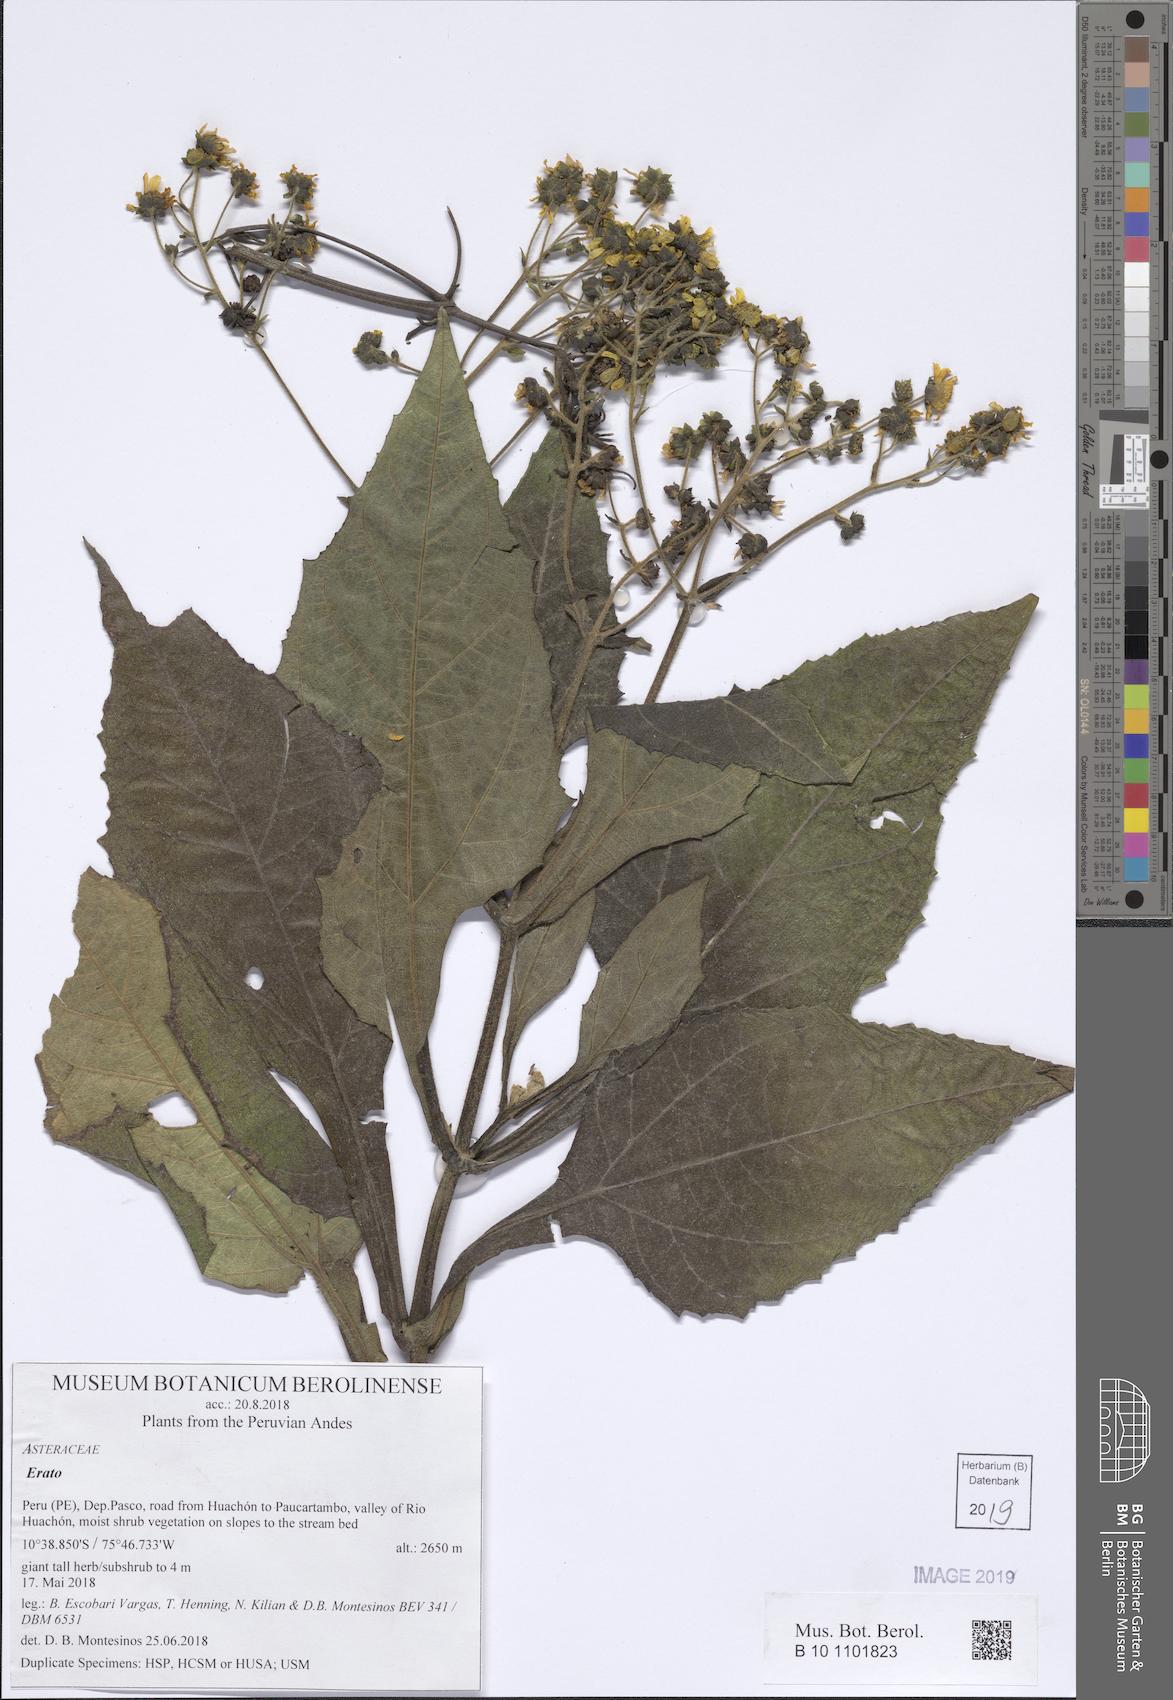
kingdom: Plantae
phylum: Tracheophyta
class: Magnoliopsida
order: Asterales
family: Asteraceae
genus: Erato
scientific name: Erato vulcanica
